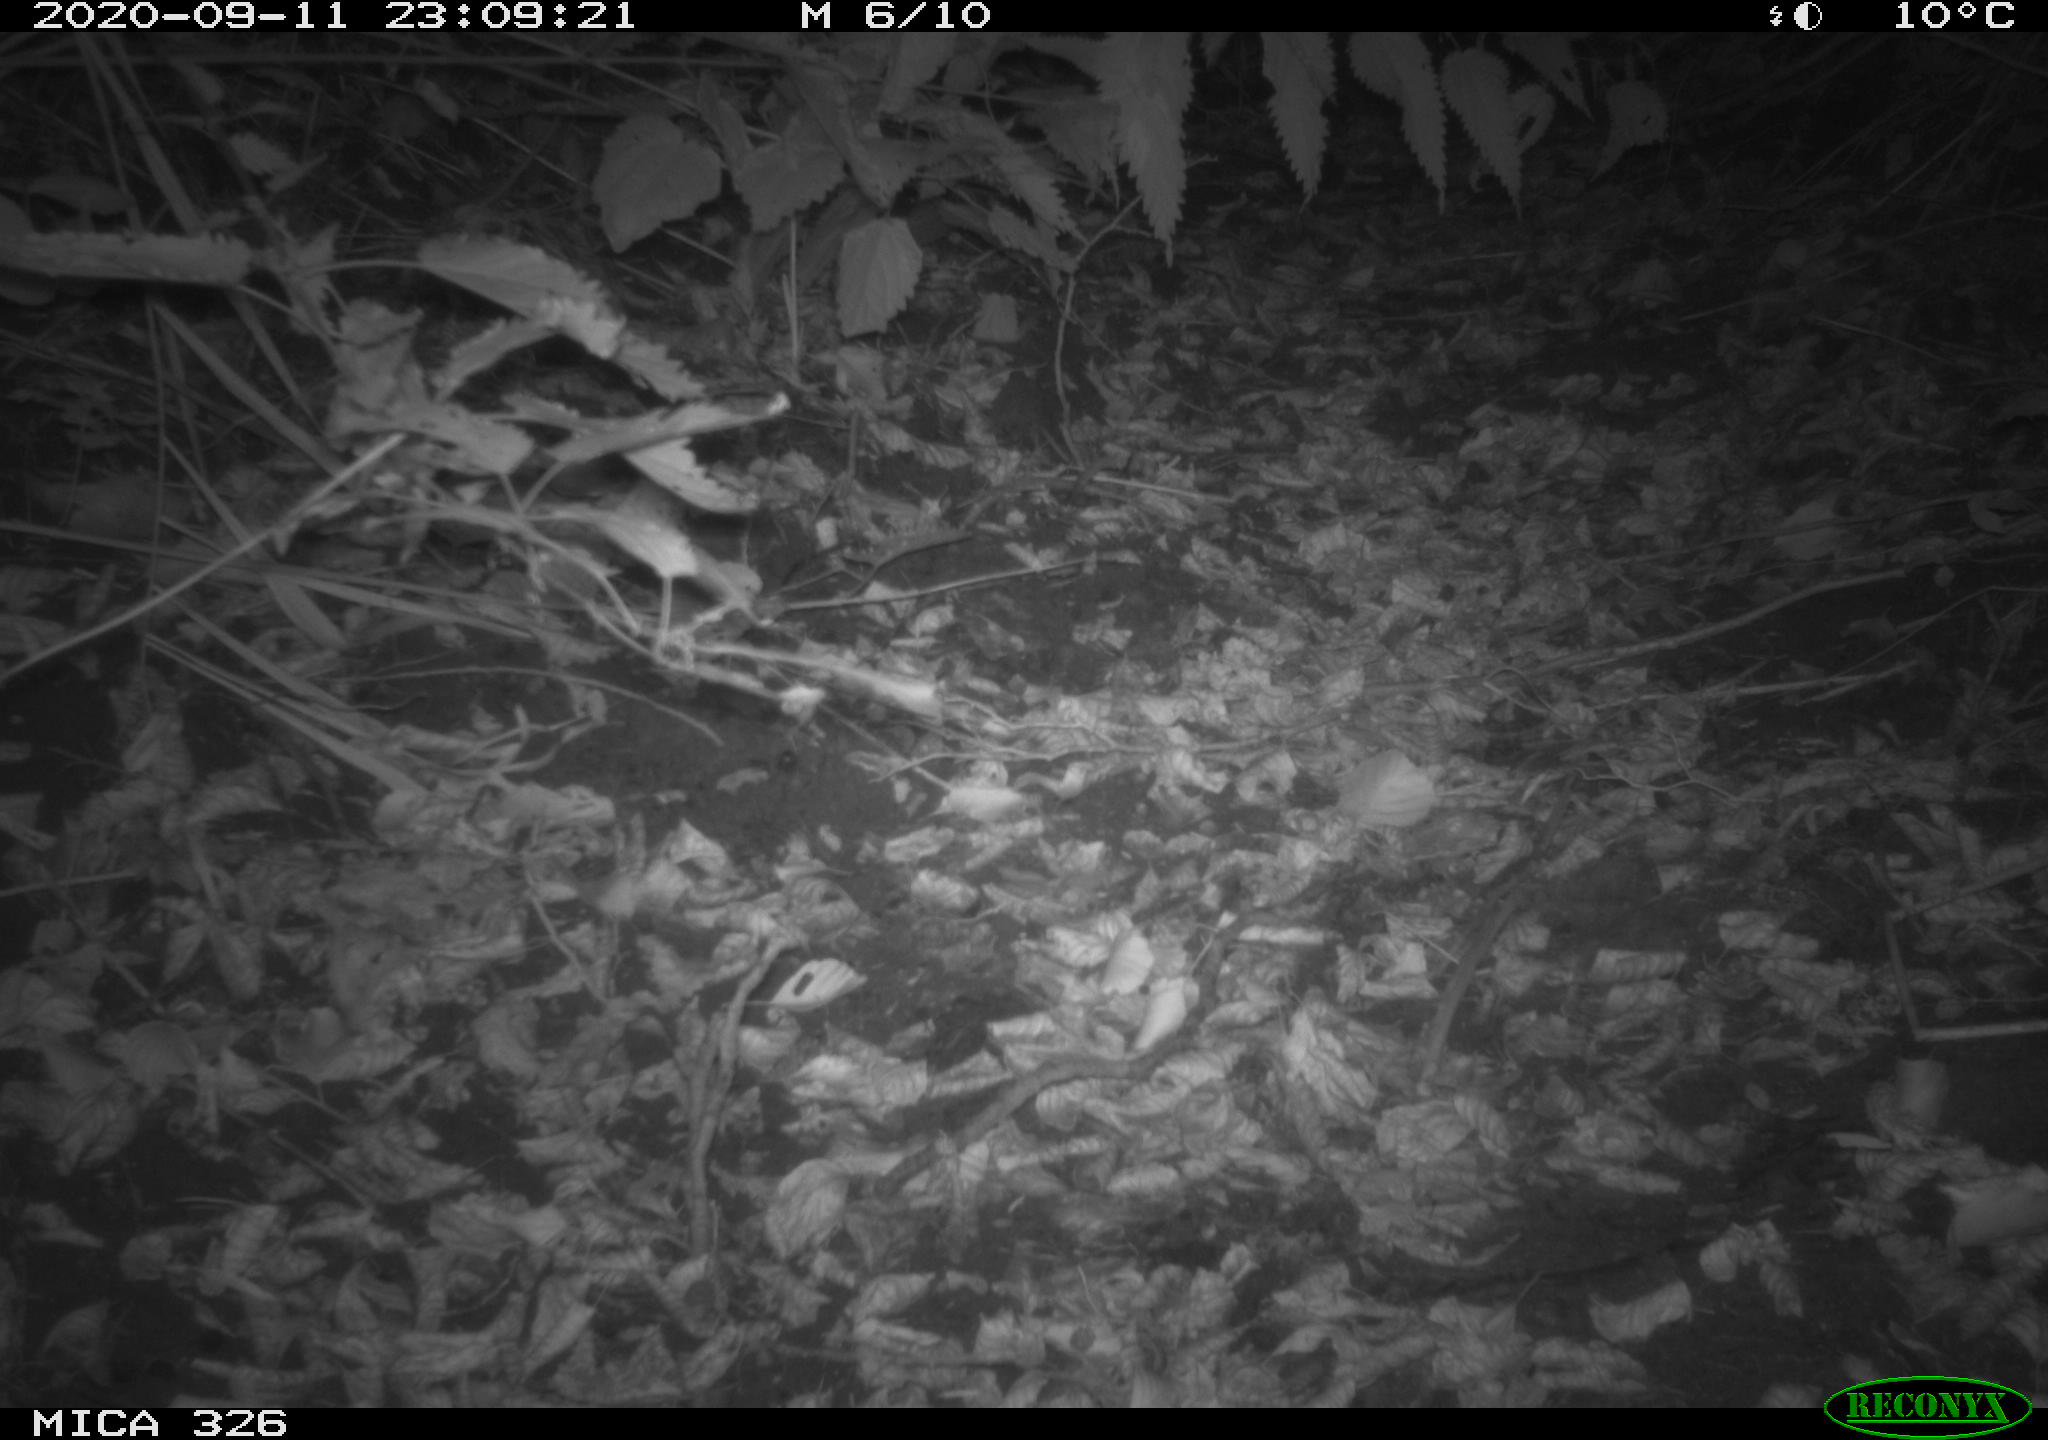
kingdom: Animalia
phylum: Chordata
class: Mammalia
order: Carnivora
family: Mustelidae
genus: Lutra
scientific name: Lutra lutra
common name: European otter
